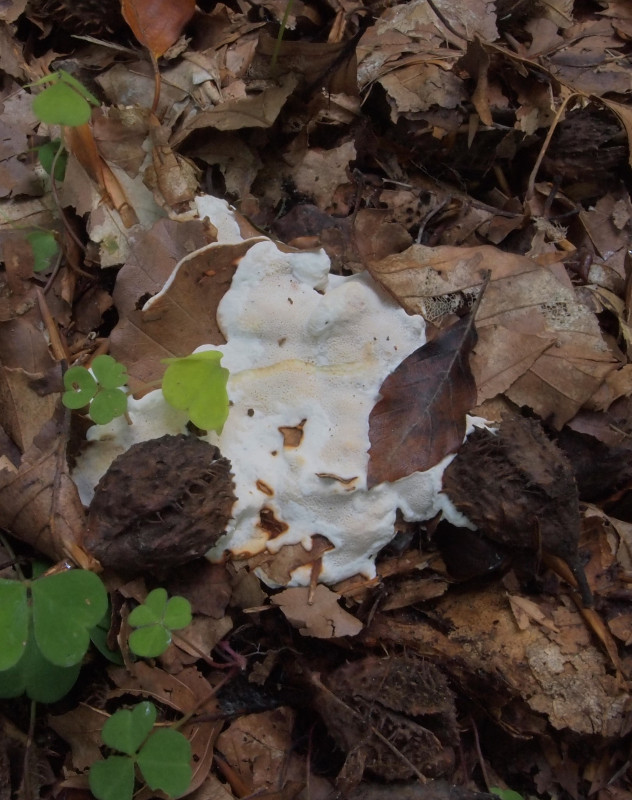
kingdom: Fungi
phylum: Basidiomycota
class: Agaricomycetes
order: Russulales
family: Bondarzewiaceae
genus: Heterobasidion
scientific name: Heterobasidion annosum
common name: almindelig rodfordærver
